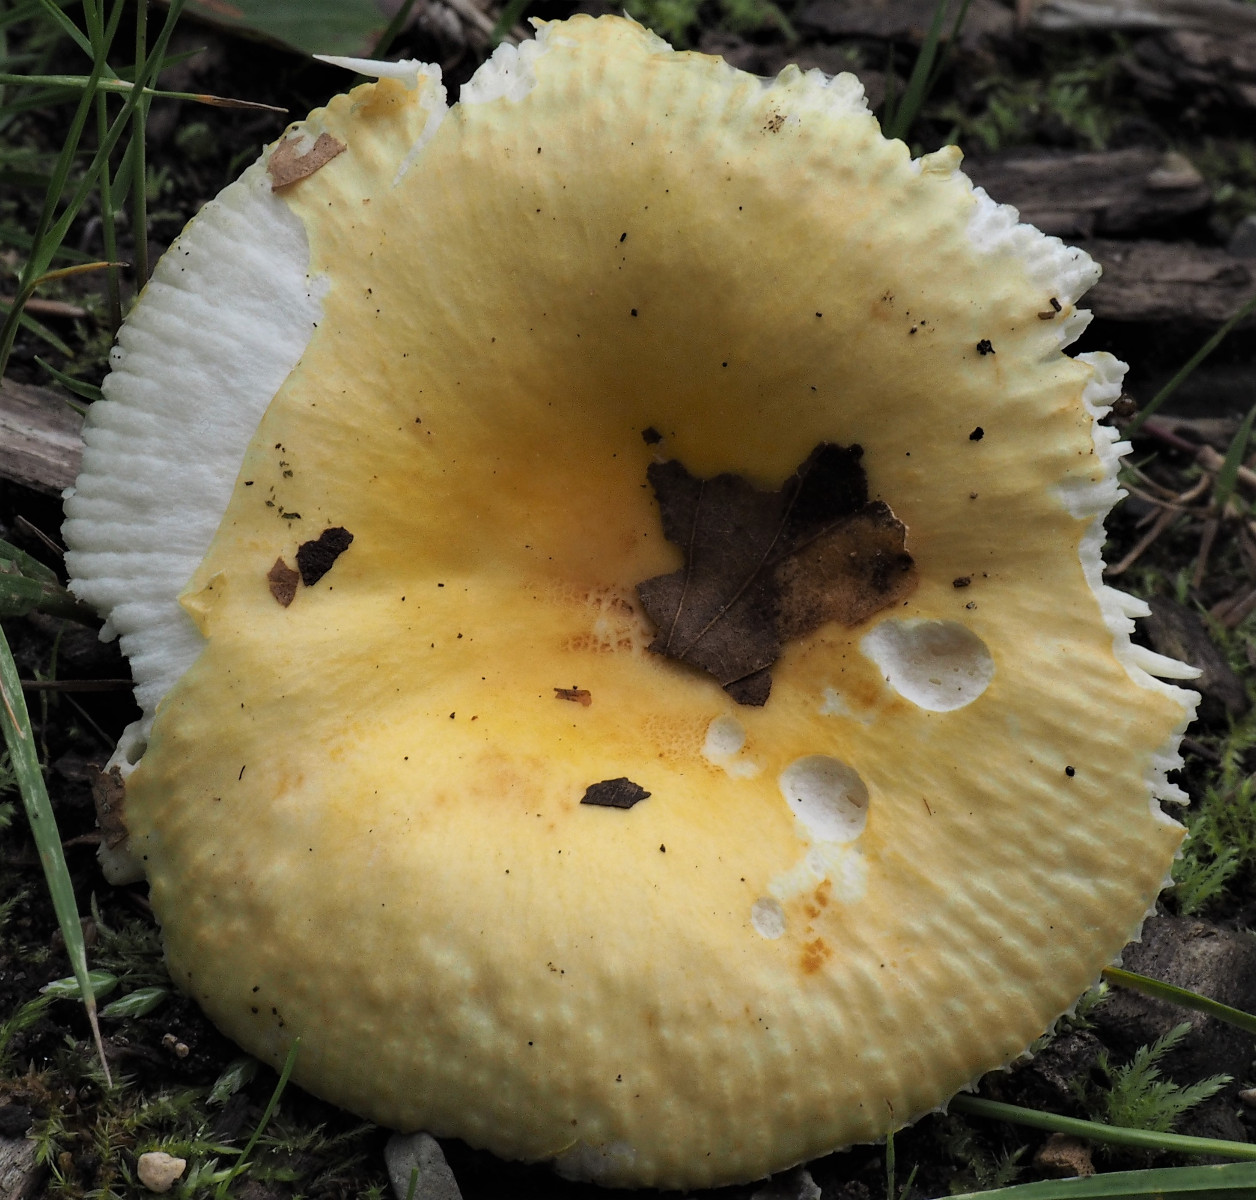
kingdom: Fungi
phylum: Basidiomycota
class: Agaricomycetes
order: Russulales
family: Russulaceae
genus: Russula
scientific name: Russula
